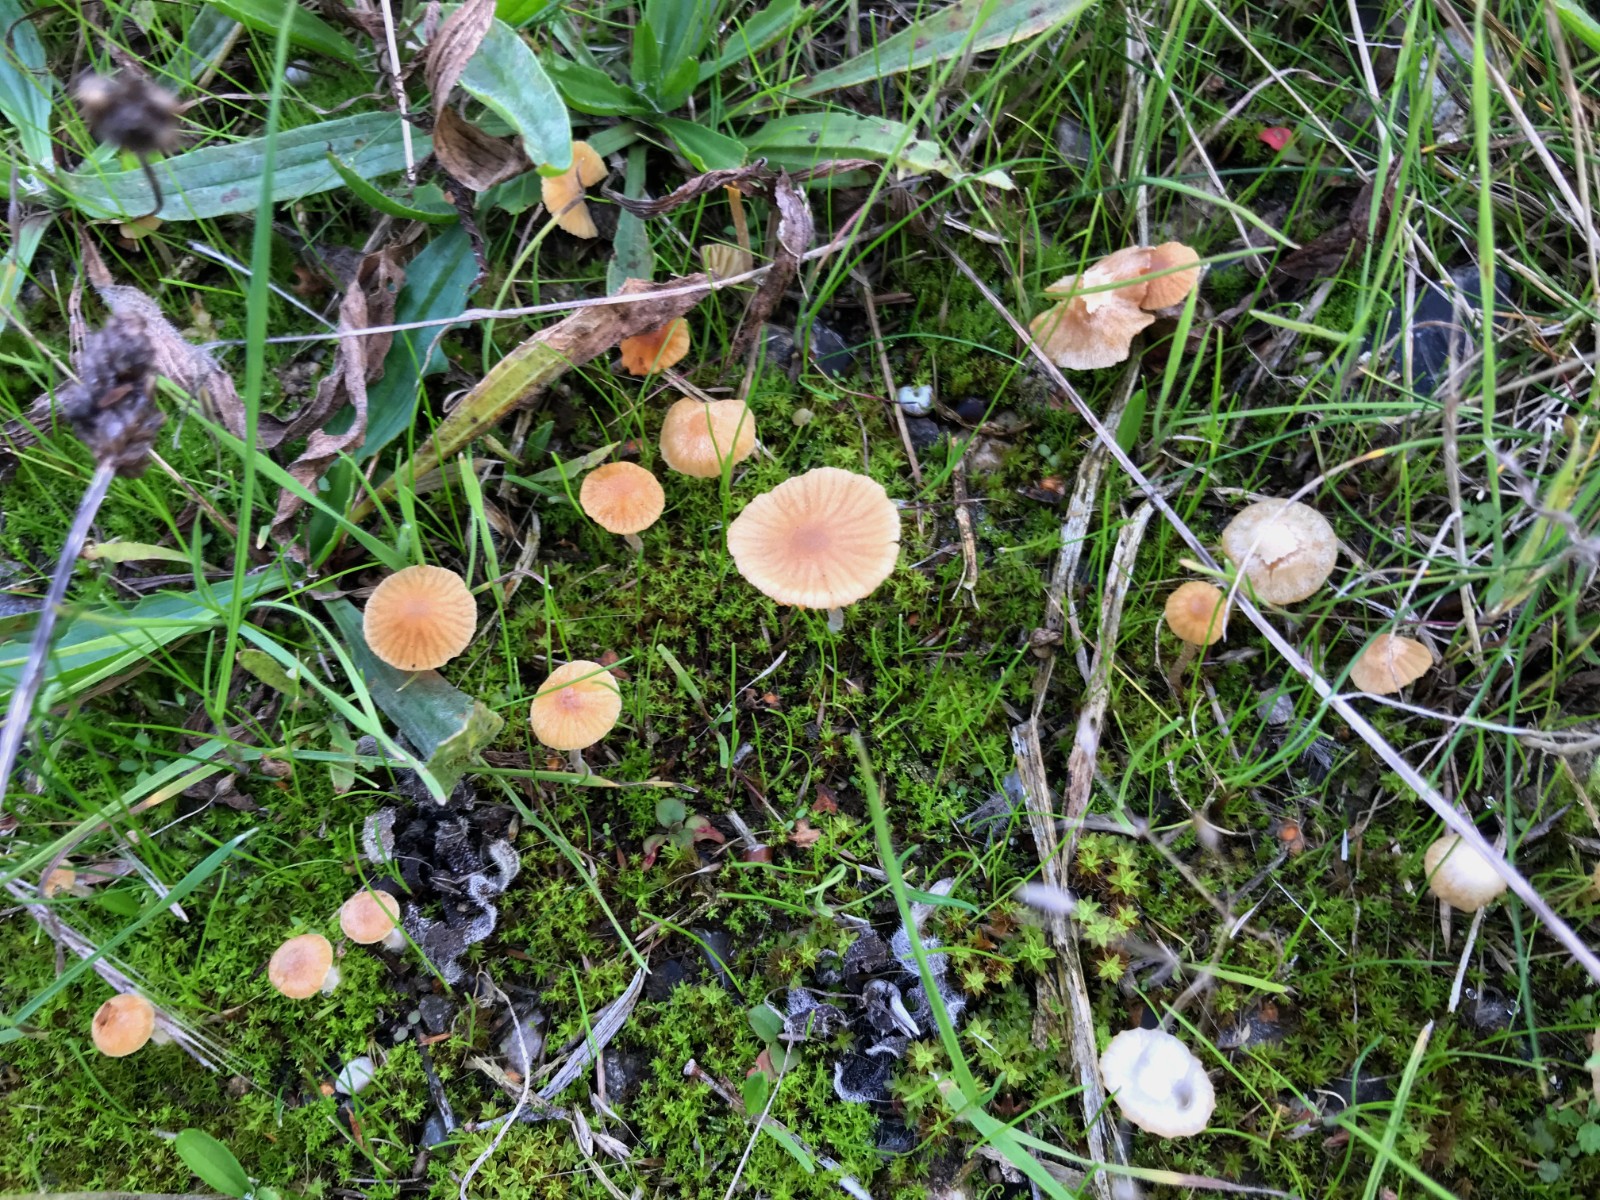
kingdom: Fungi
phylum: Basidiomycota
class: Agaricomycetes
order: Agaricales
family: Hymenogastraceae
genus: Galerina
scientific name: Galerina
